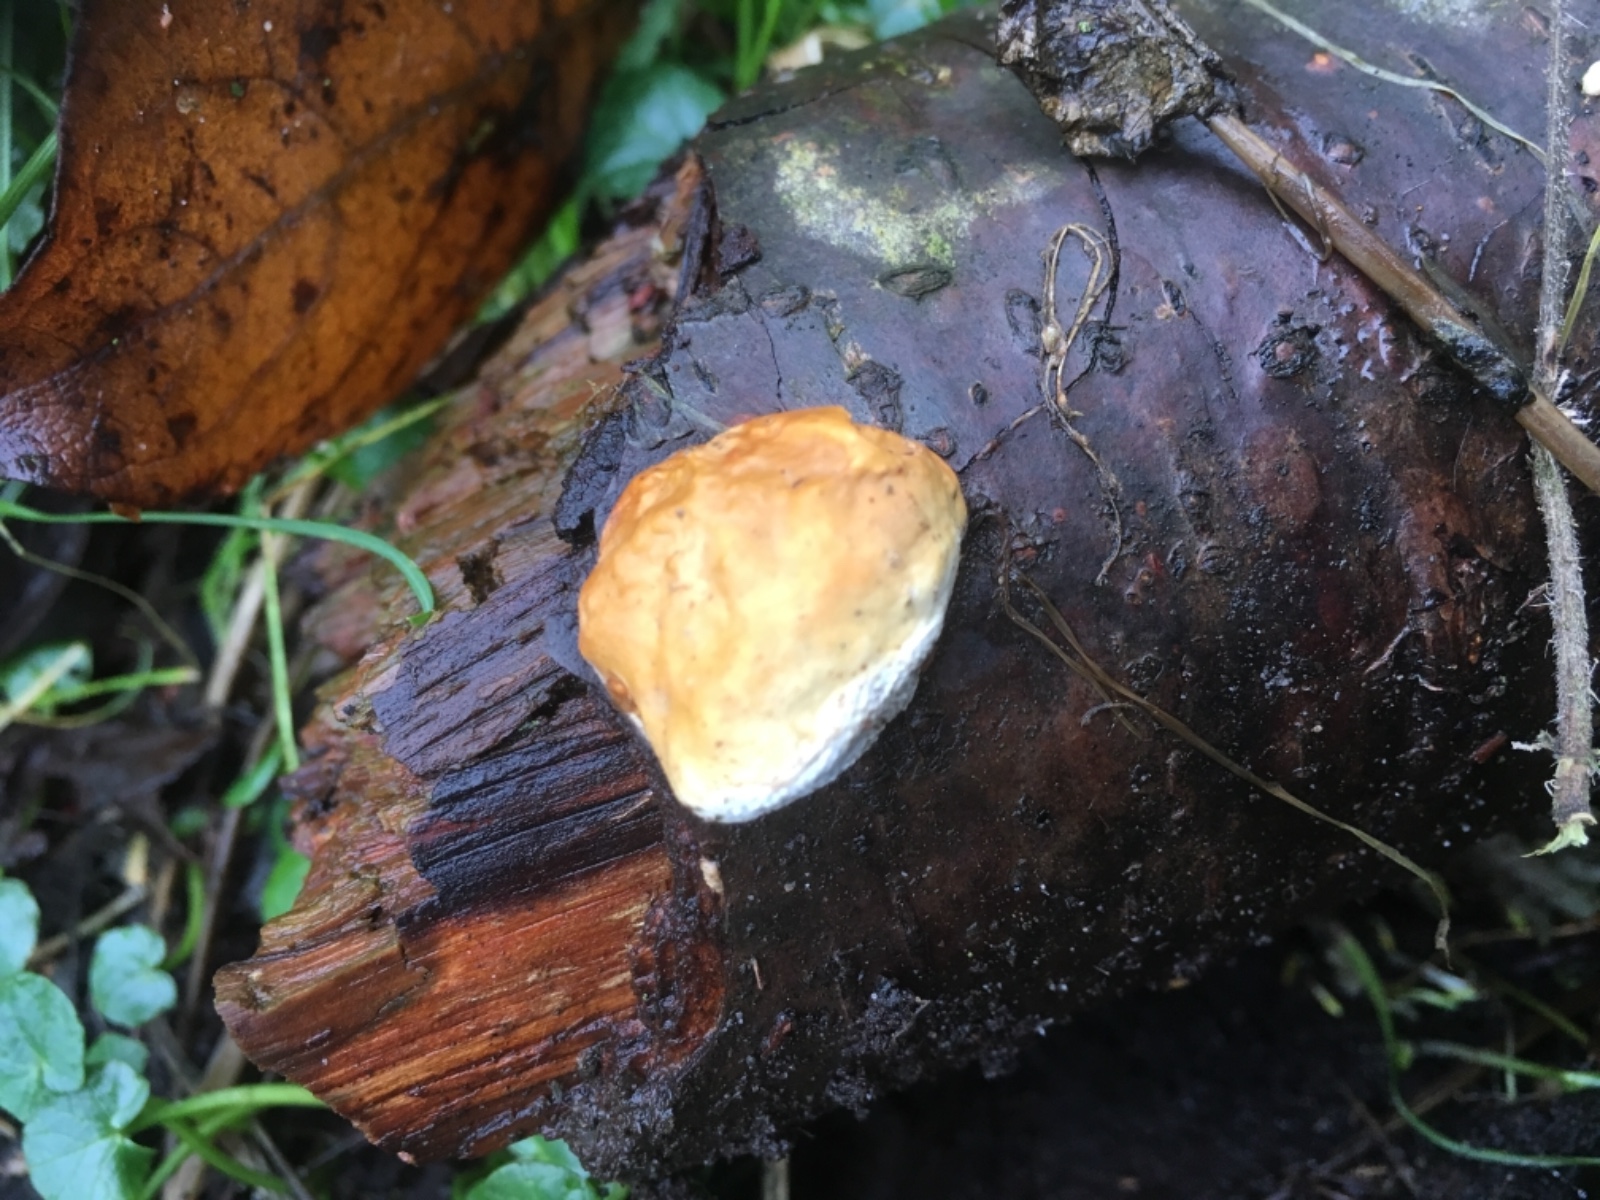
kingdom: Fungi
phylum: Basidiomycota
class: Agaricomycetes
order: Polyporales
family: Fomitopsidaceae
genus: Fomitopsis
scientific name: Fomitopsis pinicola
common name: randbæltet hovporesvamp
